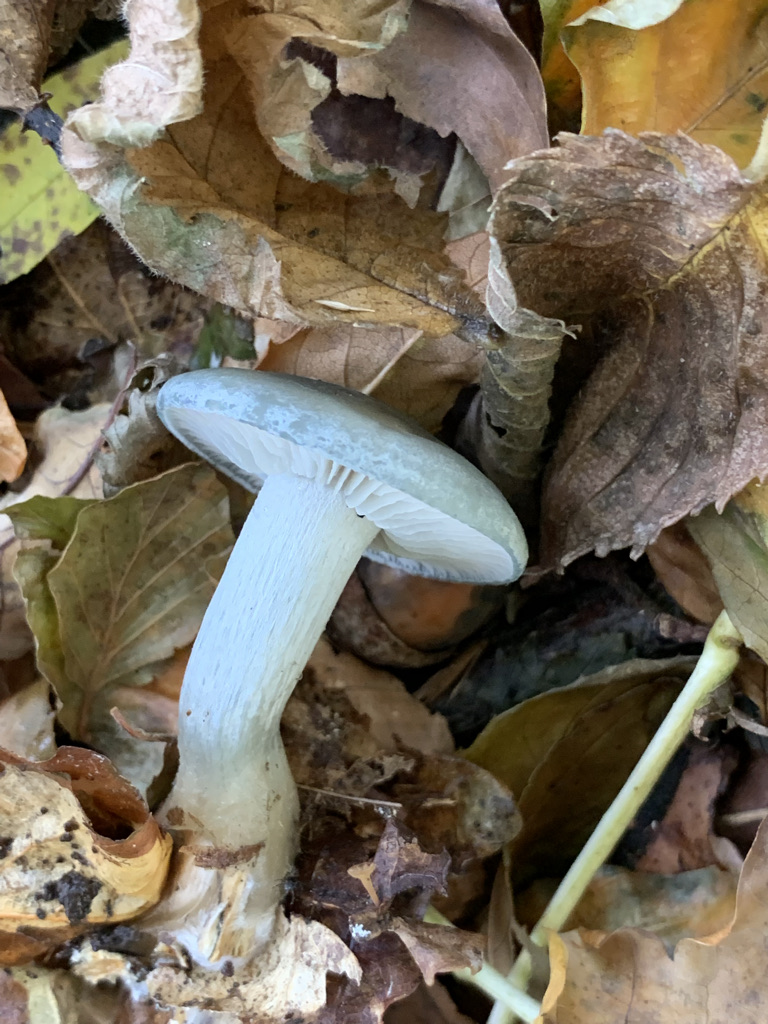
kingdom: Fungi
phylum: Basidiomycota
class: Agaricomycetes
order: Agaricales
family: Tricholomataceae
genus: Clitocybe
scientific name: Clitocybe odora
